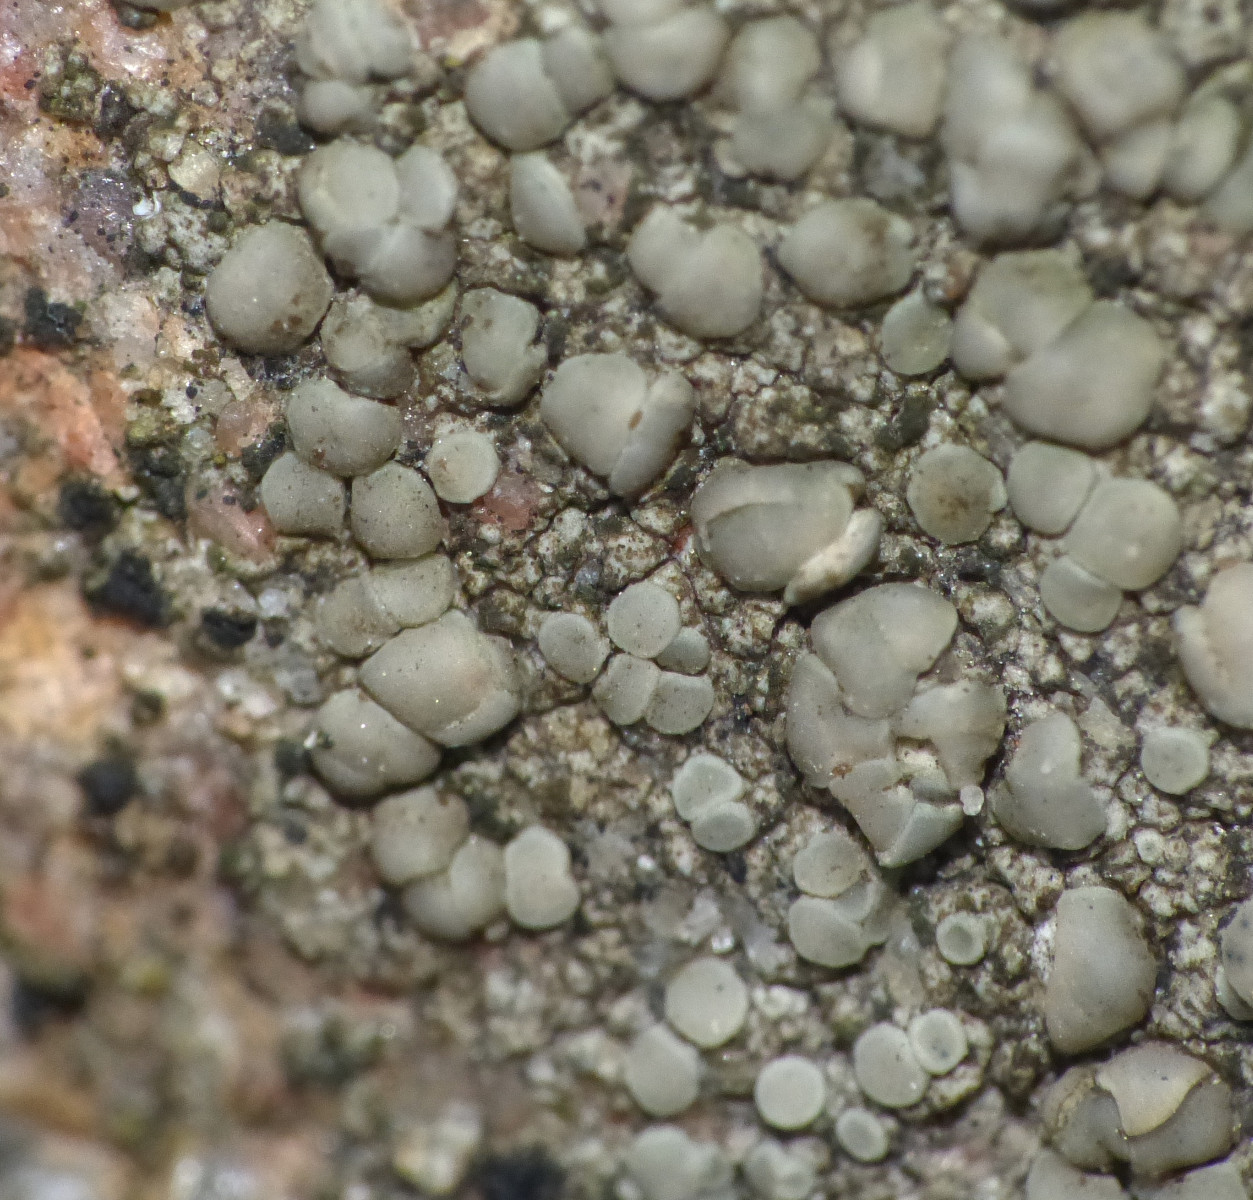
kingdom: Fungi
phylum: Ascomycota
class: Lecanoromycetes
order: Lecanorales
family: Lecanoraceae
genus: Lecanora
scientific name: Lecanora polytropa
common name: bleggrøn kantskivelav
